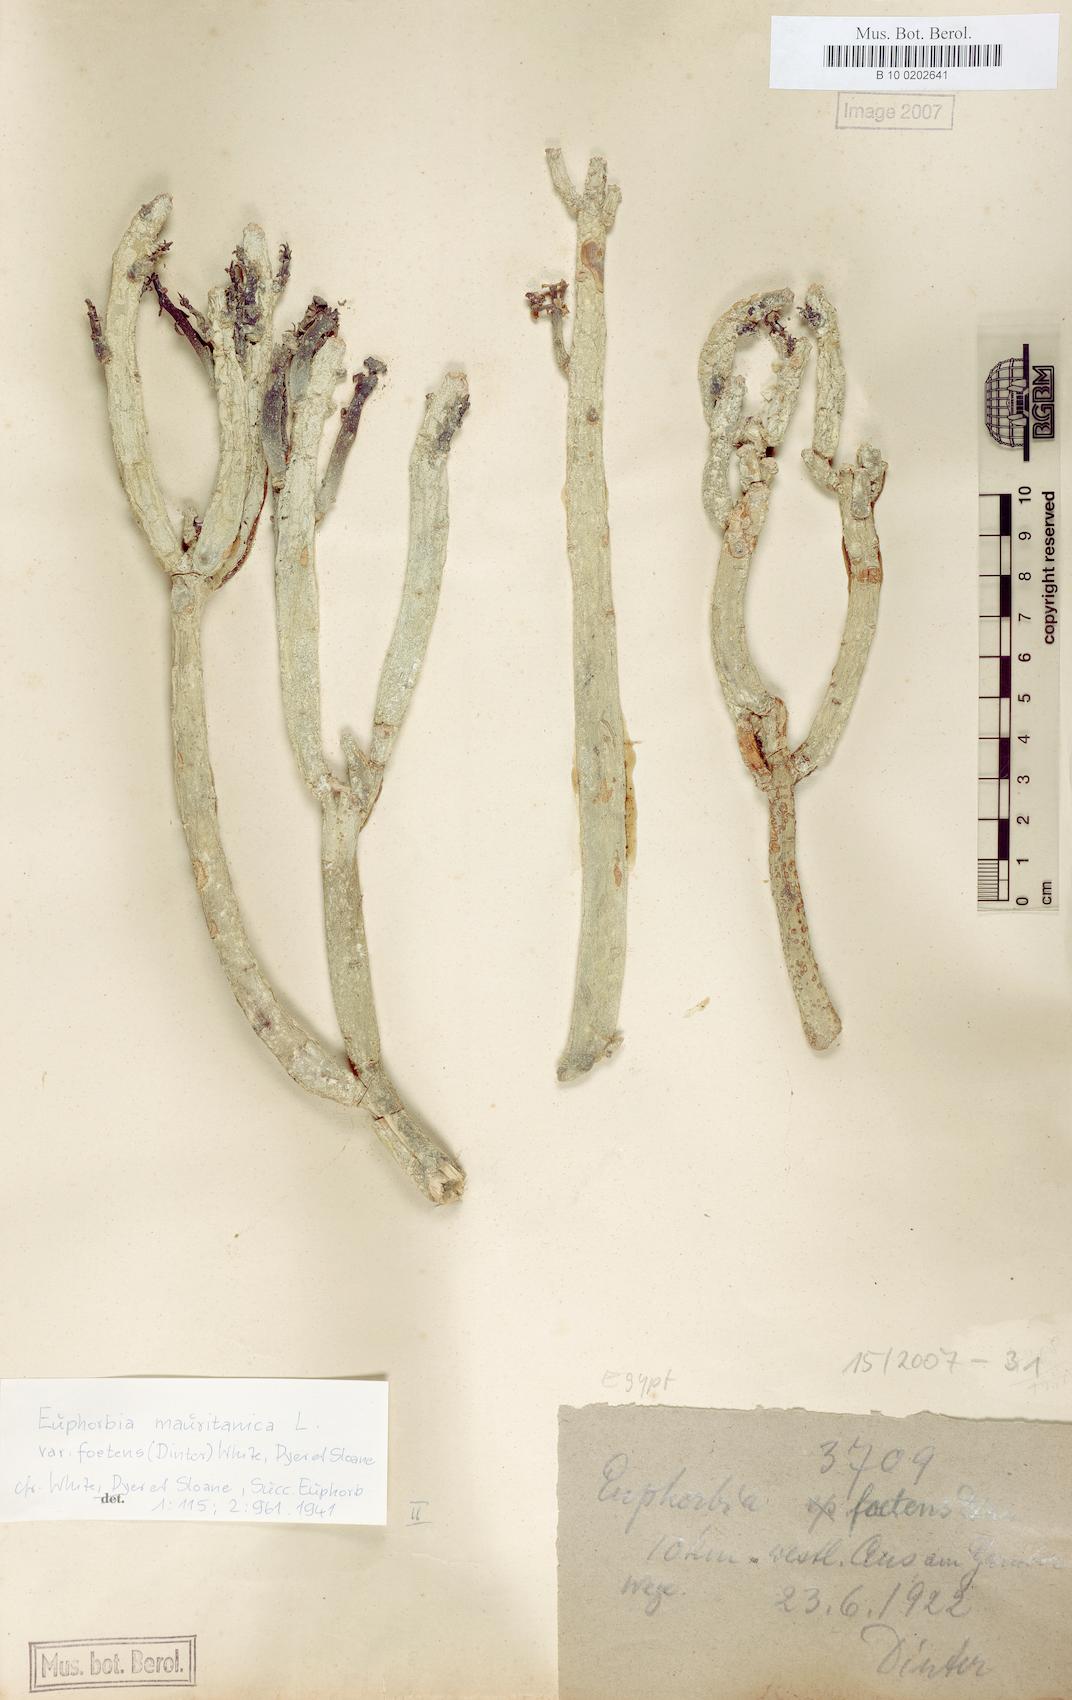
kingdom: Plantae
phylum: Tracheophyta
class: Magnoliopsida
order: Malpighiales
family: Euphorbiaceae
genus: Euphorbia
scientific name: Euphorbia mauritanica
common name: Jackal's-food
